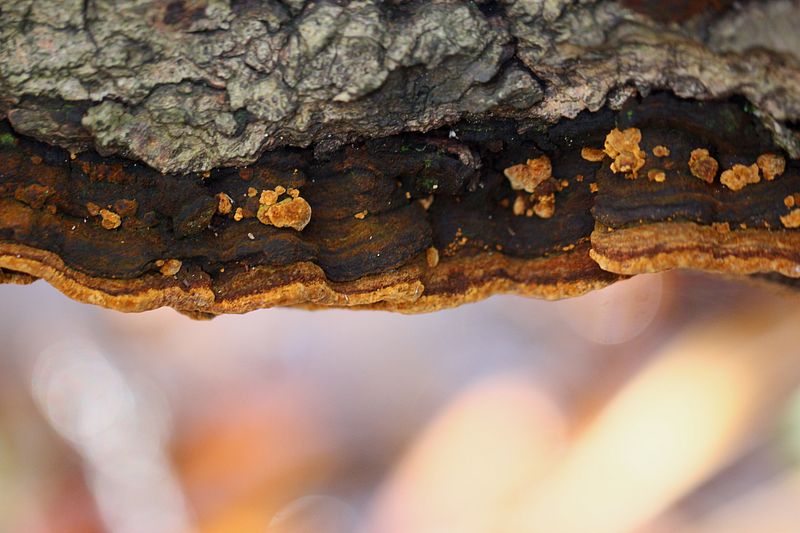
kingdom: Fungi
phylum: Basidiomycota
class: Agaricomycetes
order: Hymenochaetales
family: Hymenochaetaceae
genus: Phellinopsis
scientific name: Phellinopsis conchata
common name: pile-ildporesvamp
